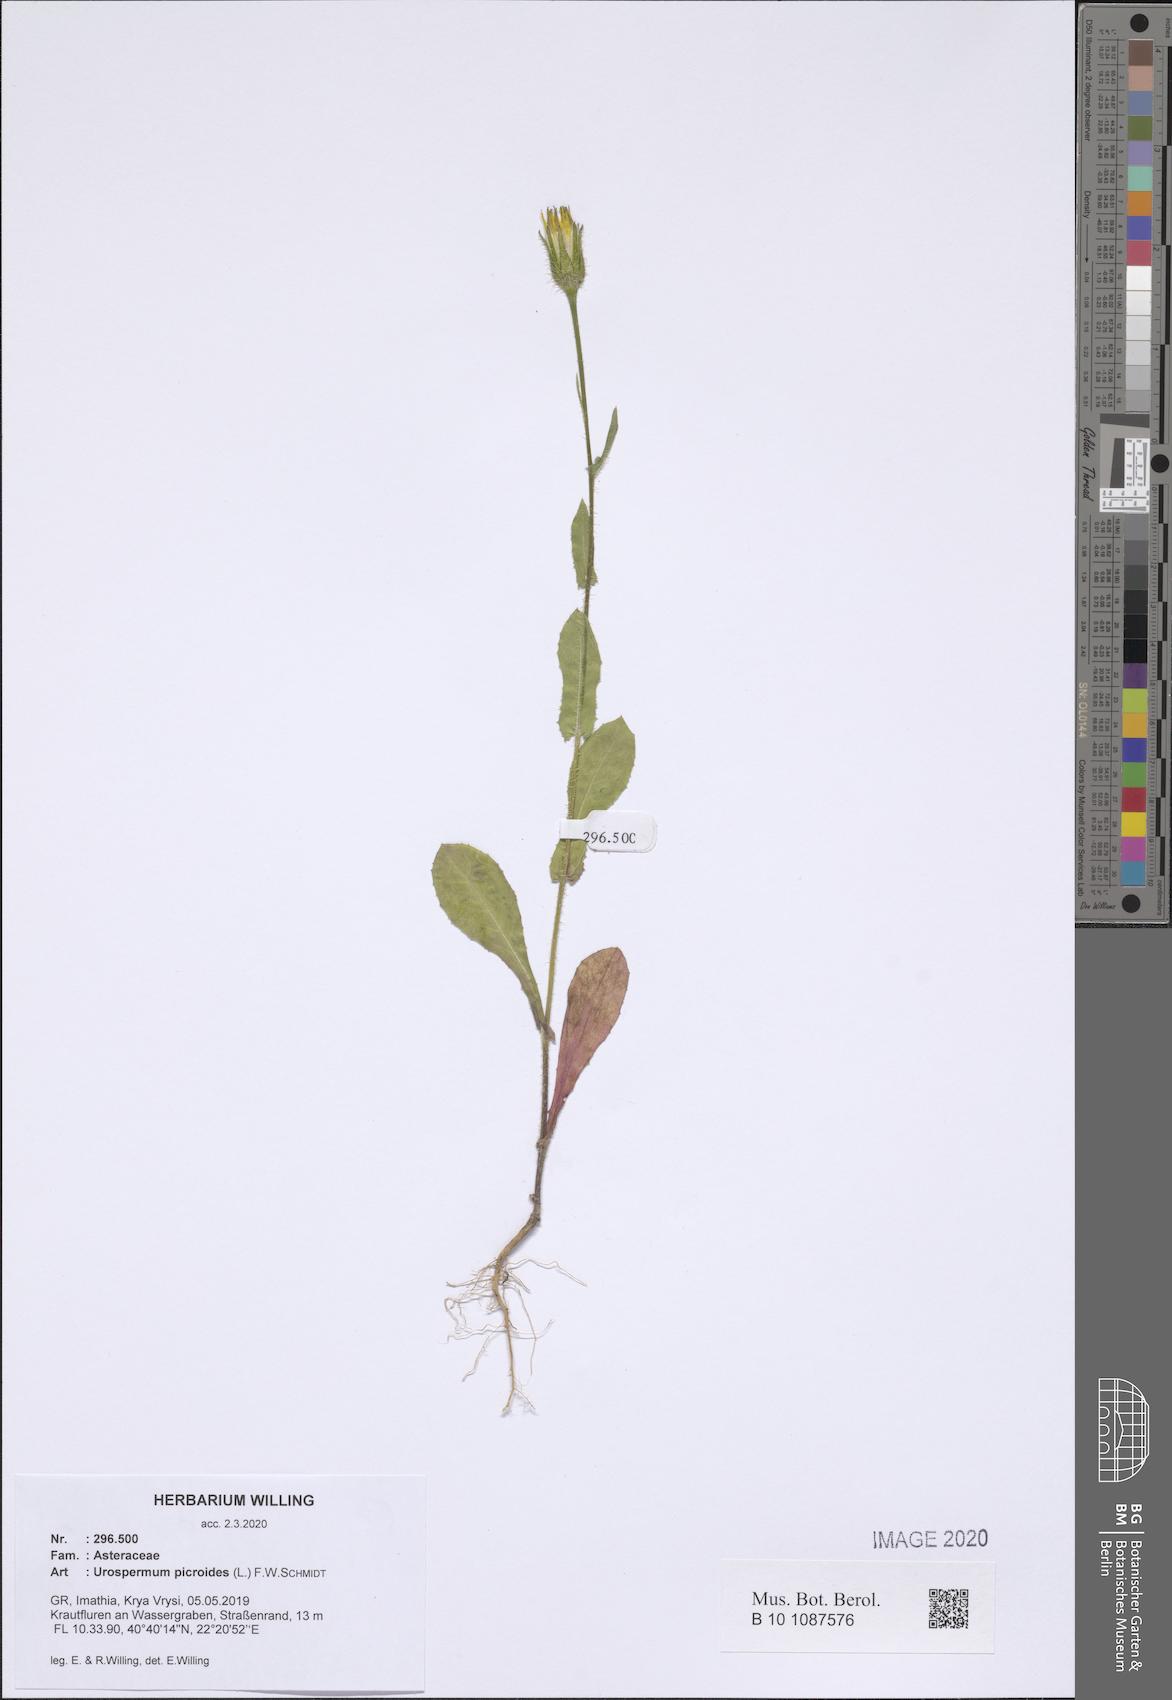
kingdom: Plantae
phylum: Tracheophyta
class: Magnoliopsida
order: Asterales
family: Asteraceae
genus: Urospermum
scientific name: Urospermum picroides
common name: False hawkbit
